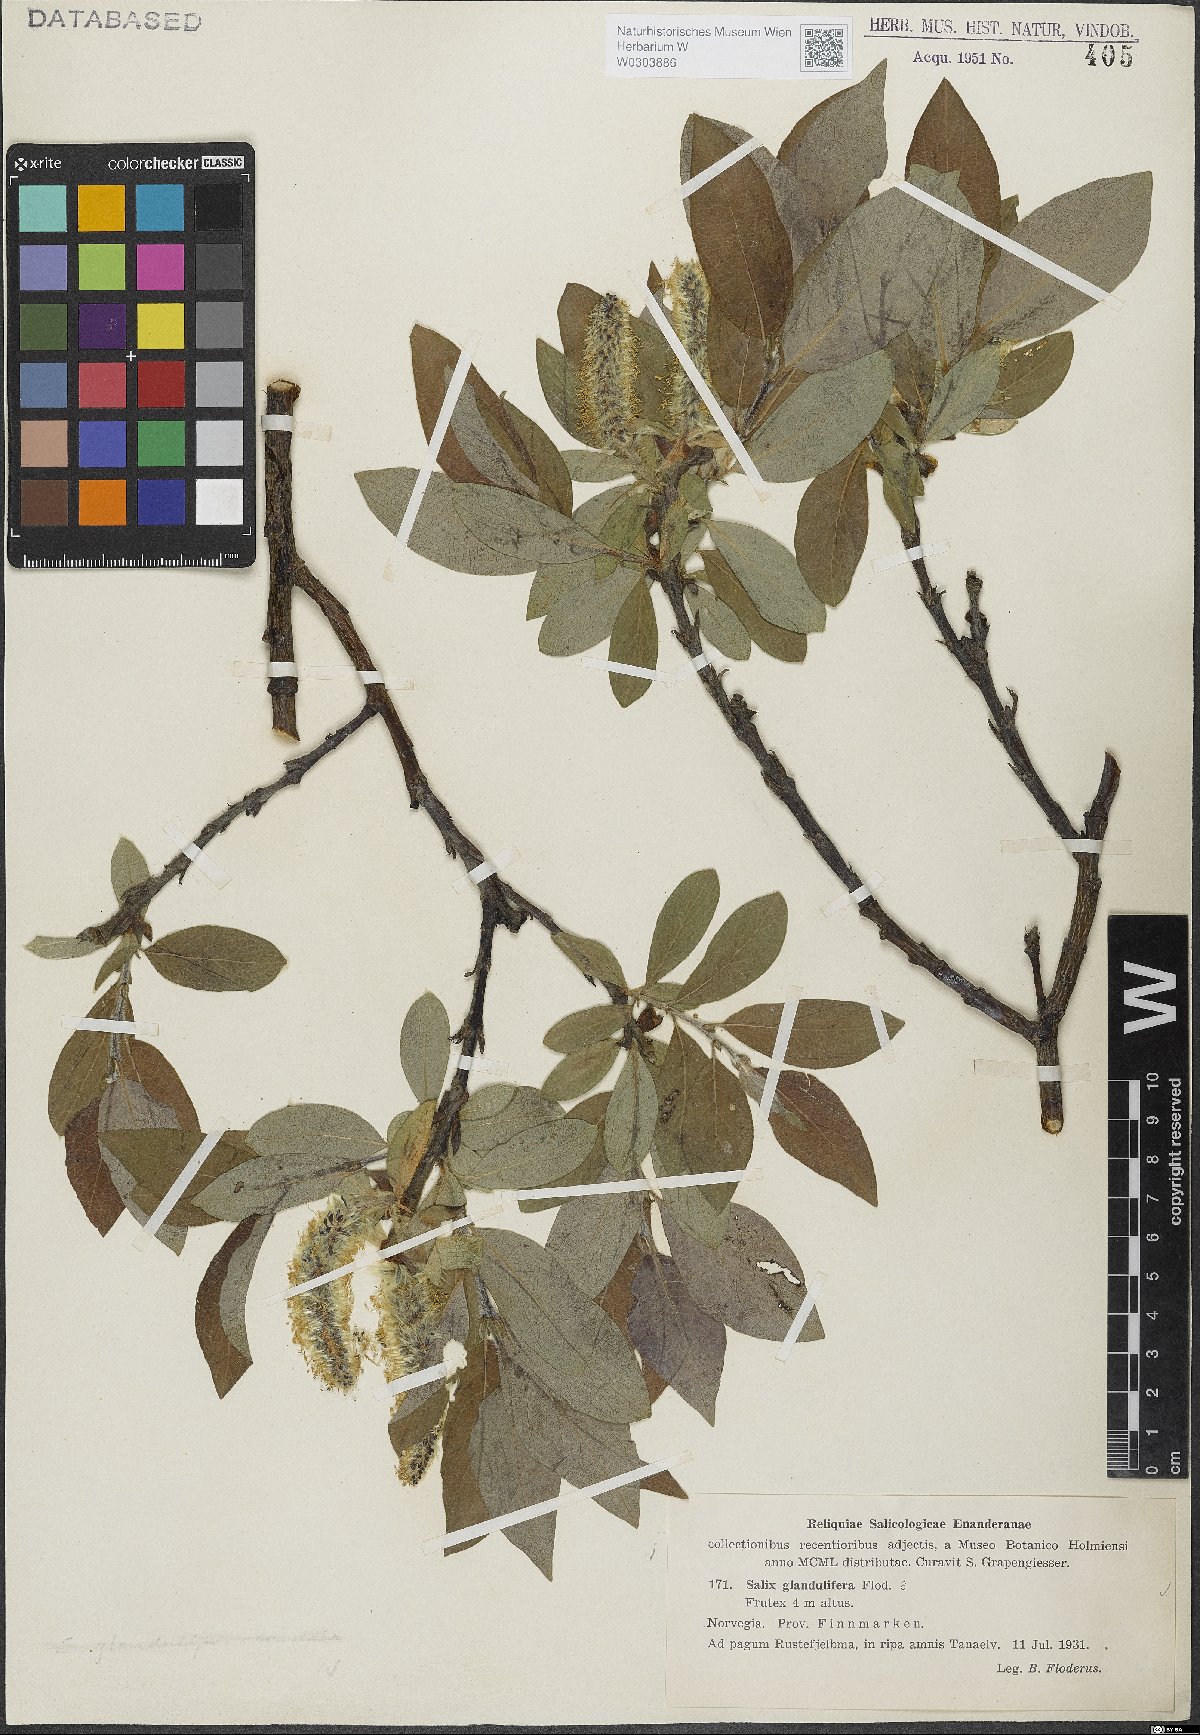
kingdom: Plantae
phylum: Tracheophyta
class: Magnoliopsida
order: Malpighiales
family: Salicaceae
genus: Salix
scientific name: Salix lanata
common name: Woolly willow
